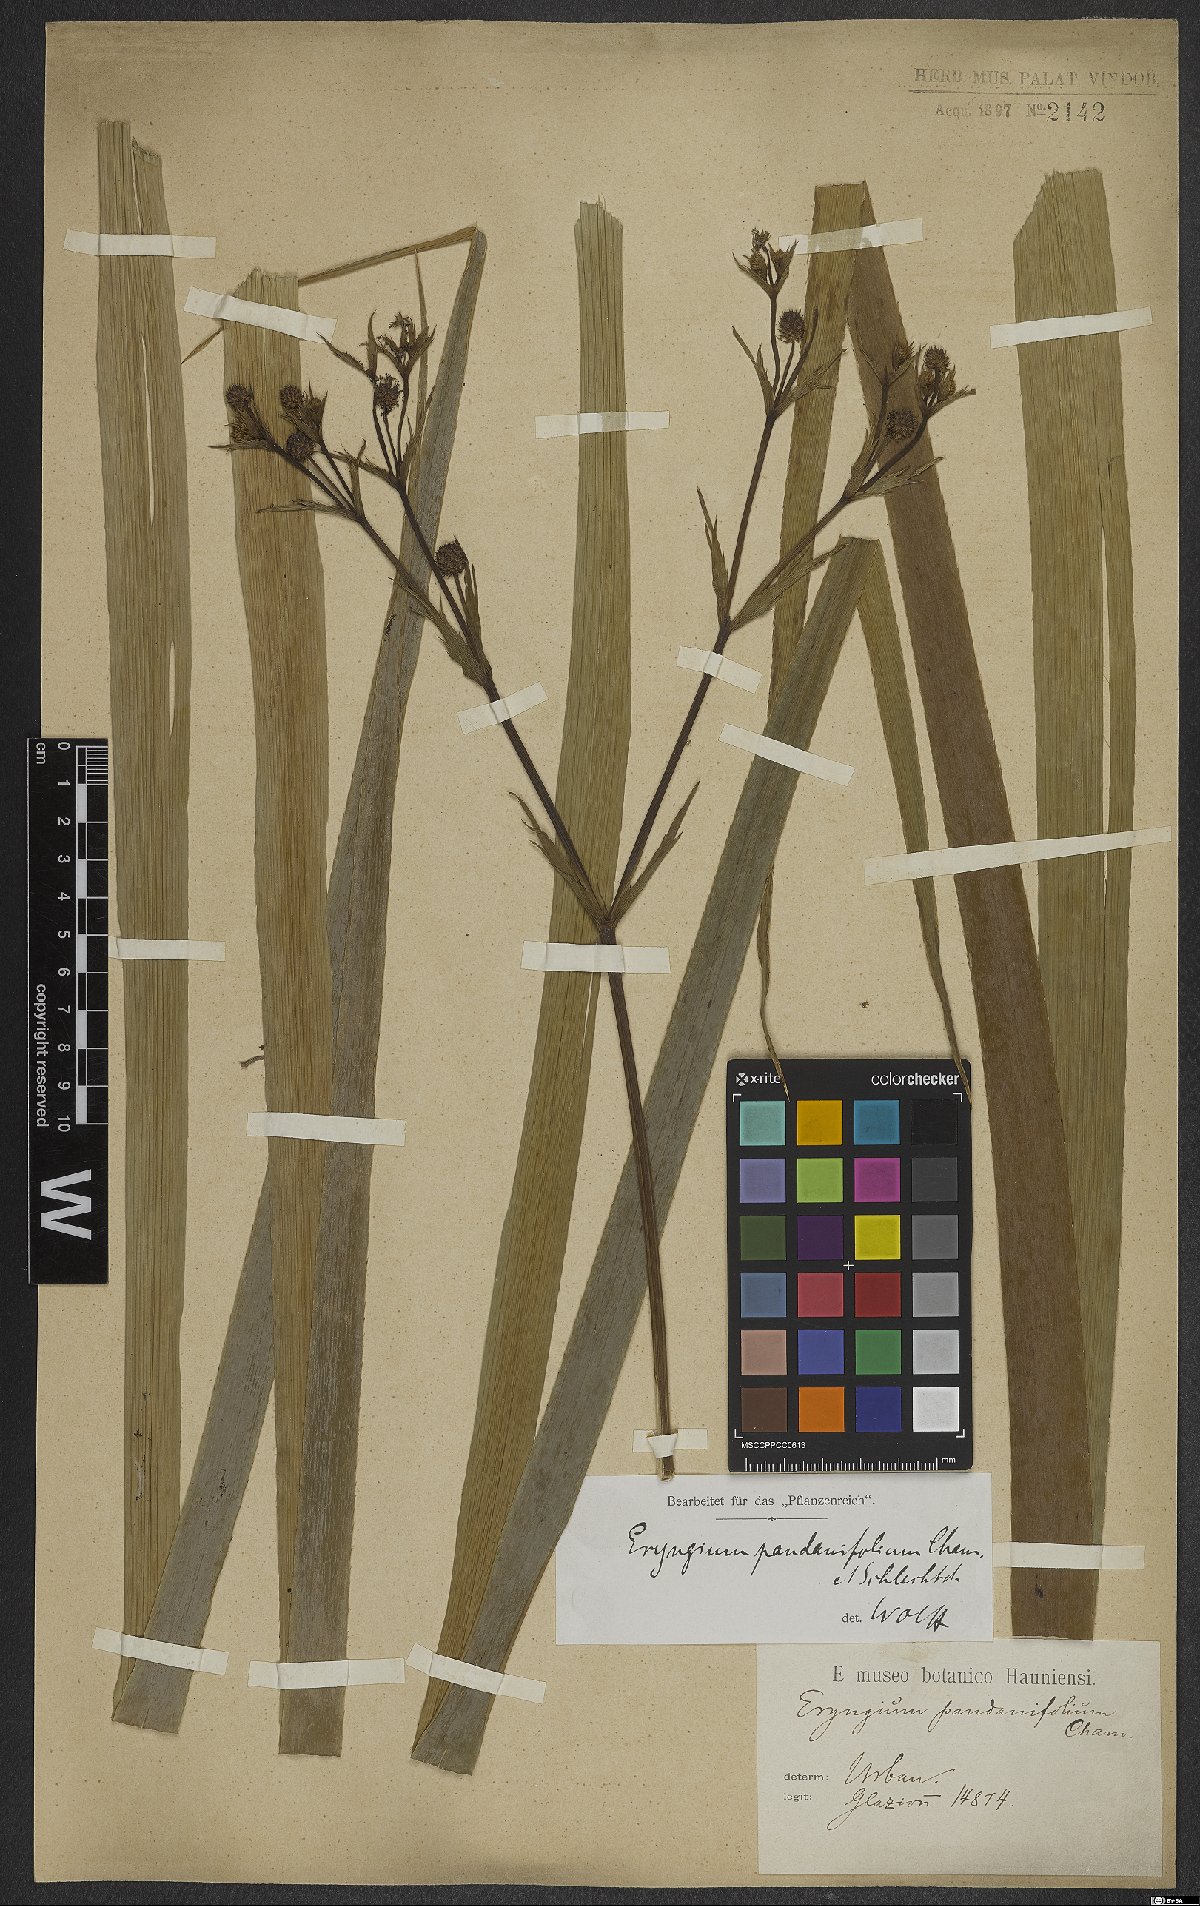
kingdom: Plantae
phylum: Tracheophyta
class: Magnoliopsida
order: Apiales
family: Apiaceae
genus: Eryngium
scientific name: Eryngium pandanifolium
